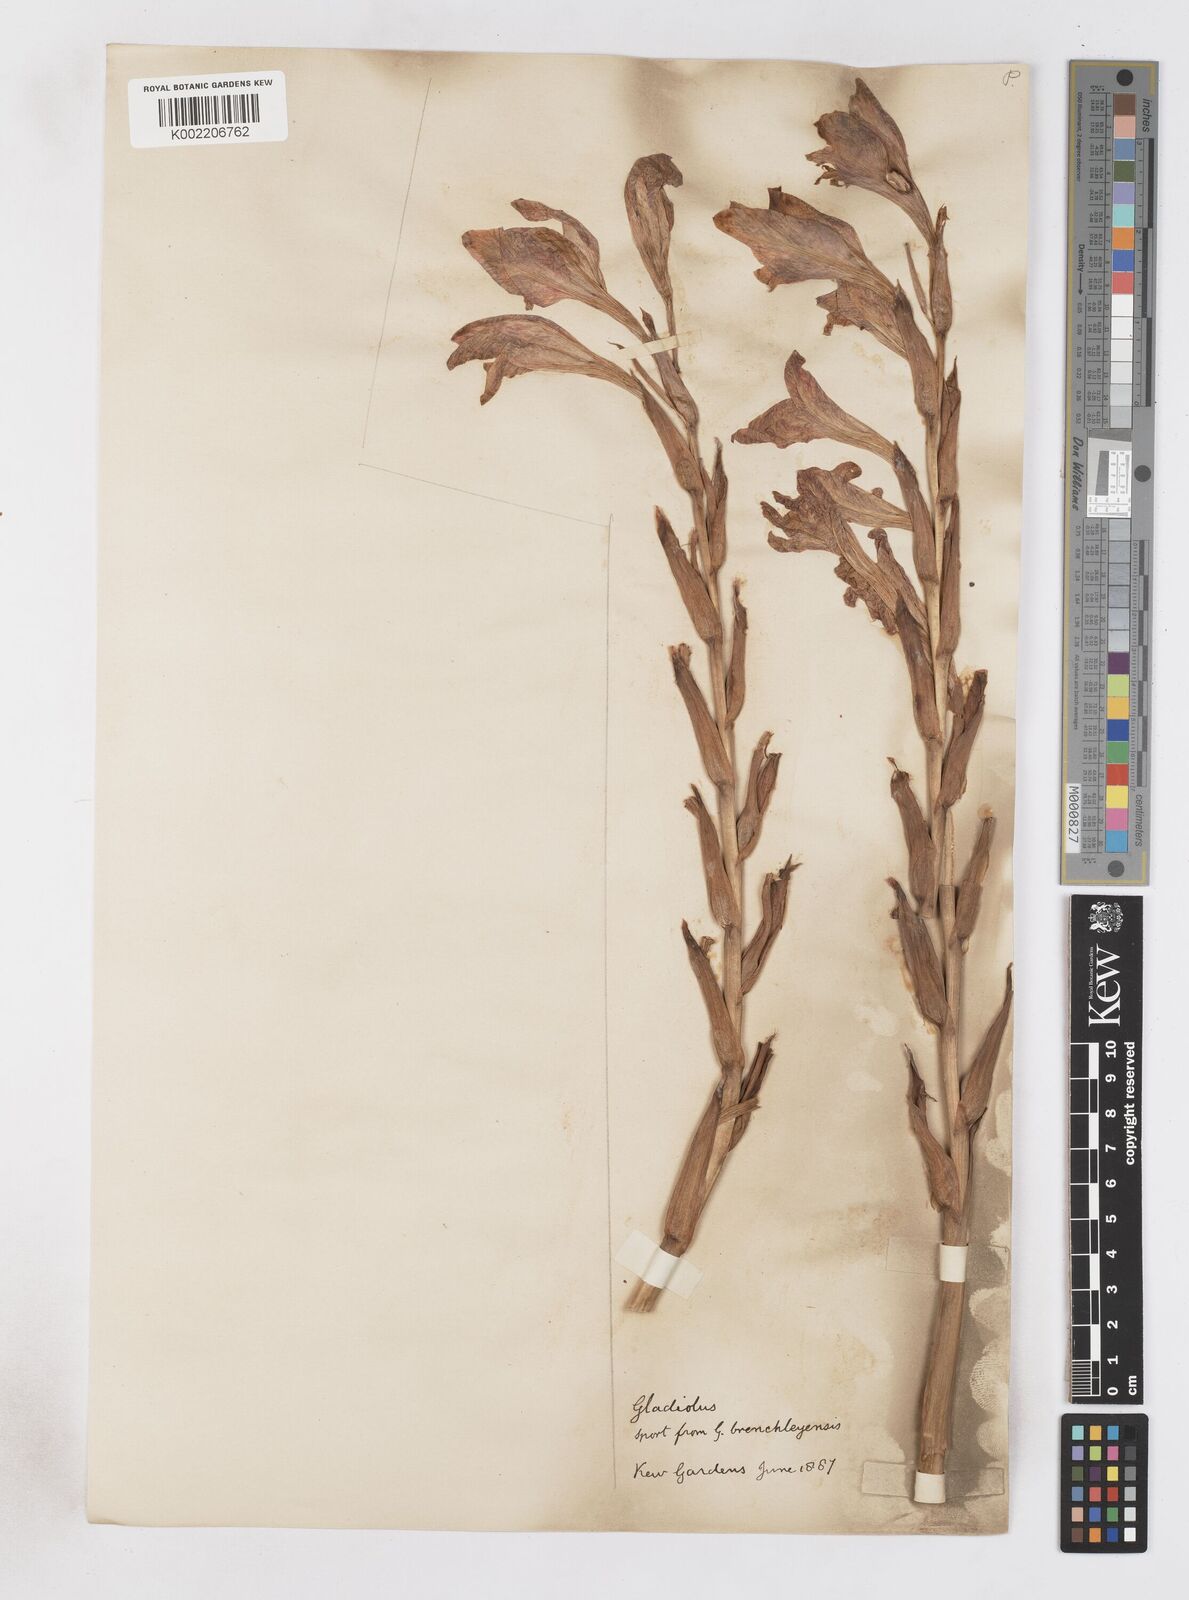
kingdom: Plantae
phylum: Tracheophyta
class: Liliopsida
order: Asparagales
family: Iridaceae
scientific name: Iridaceae
